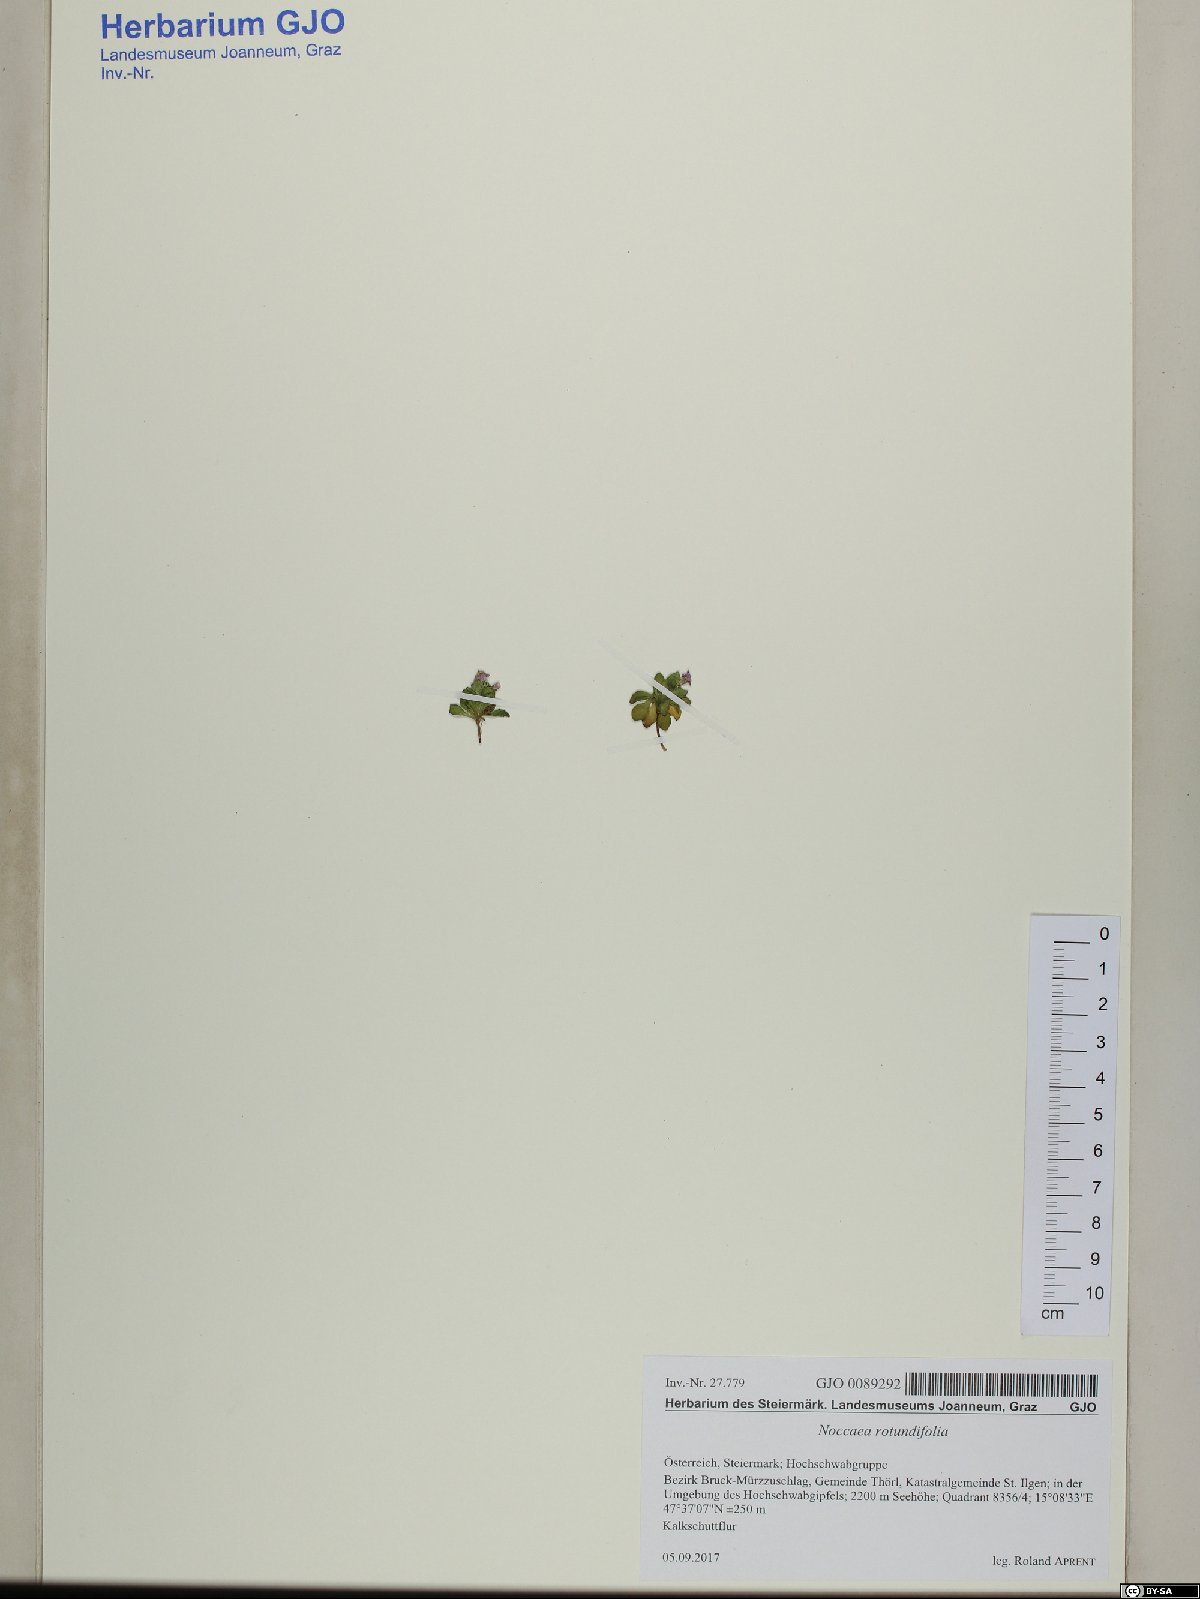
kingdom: Plantae
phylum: Tracheophyta
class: Magnoliopsida
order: Brassicales
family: Brassicaceae
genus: Noccaea
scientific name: Noccaea rotundifolia
